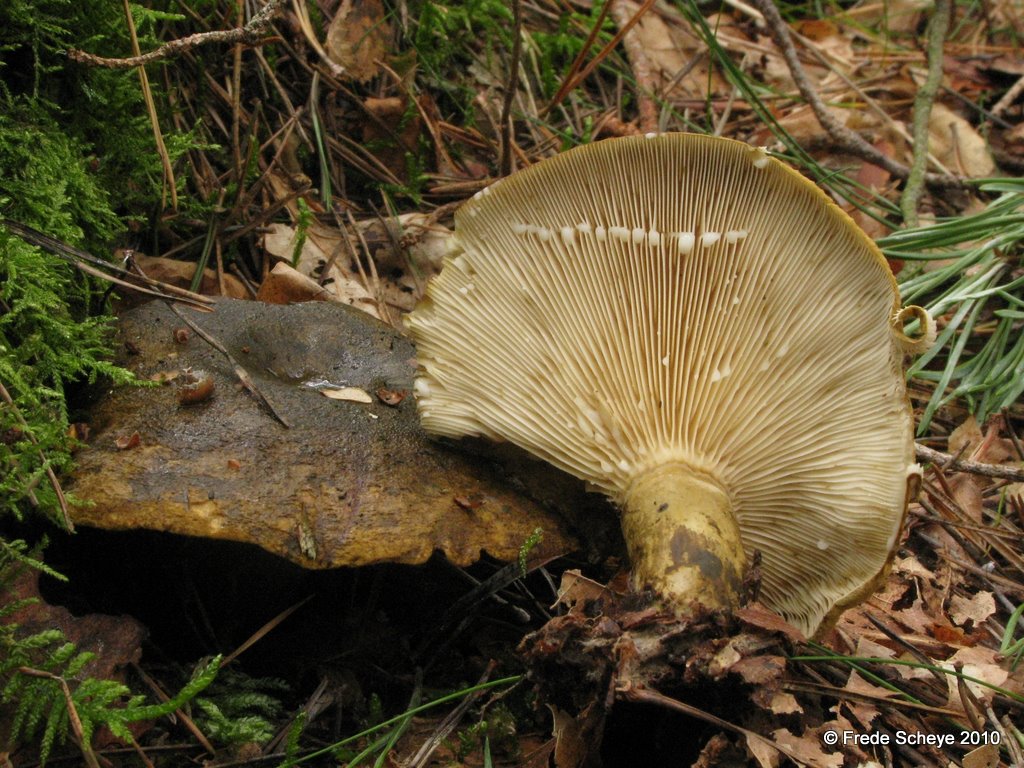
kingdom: Fungi
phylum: Basidiomycota
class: Agaricomycetes
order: Russulales
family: Russulaceae
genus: Lactarius
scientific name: Lactarius necator
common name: manddraber-mælkehat
